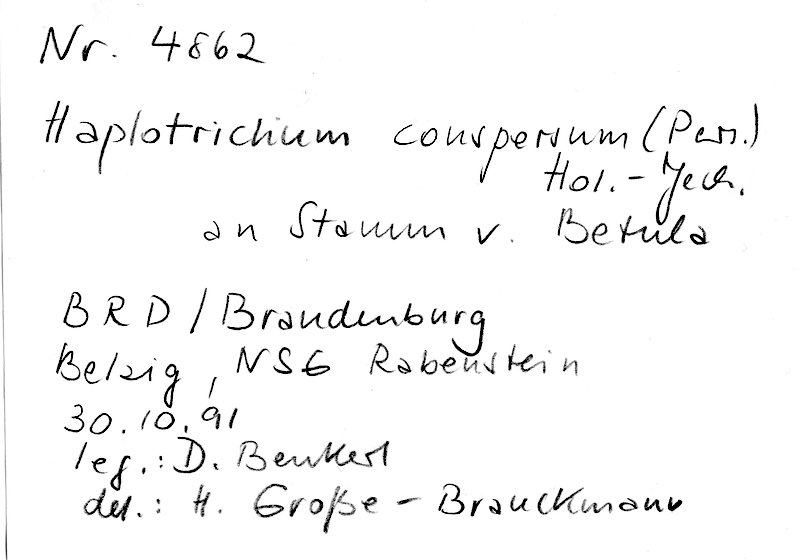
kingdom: Fungi
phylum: Basidiomycota
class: Agaricomycetes
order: Cantharellales
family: Botryobasidiaceae
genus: Botryobasidium
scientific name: Botryobasidium conspersum
